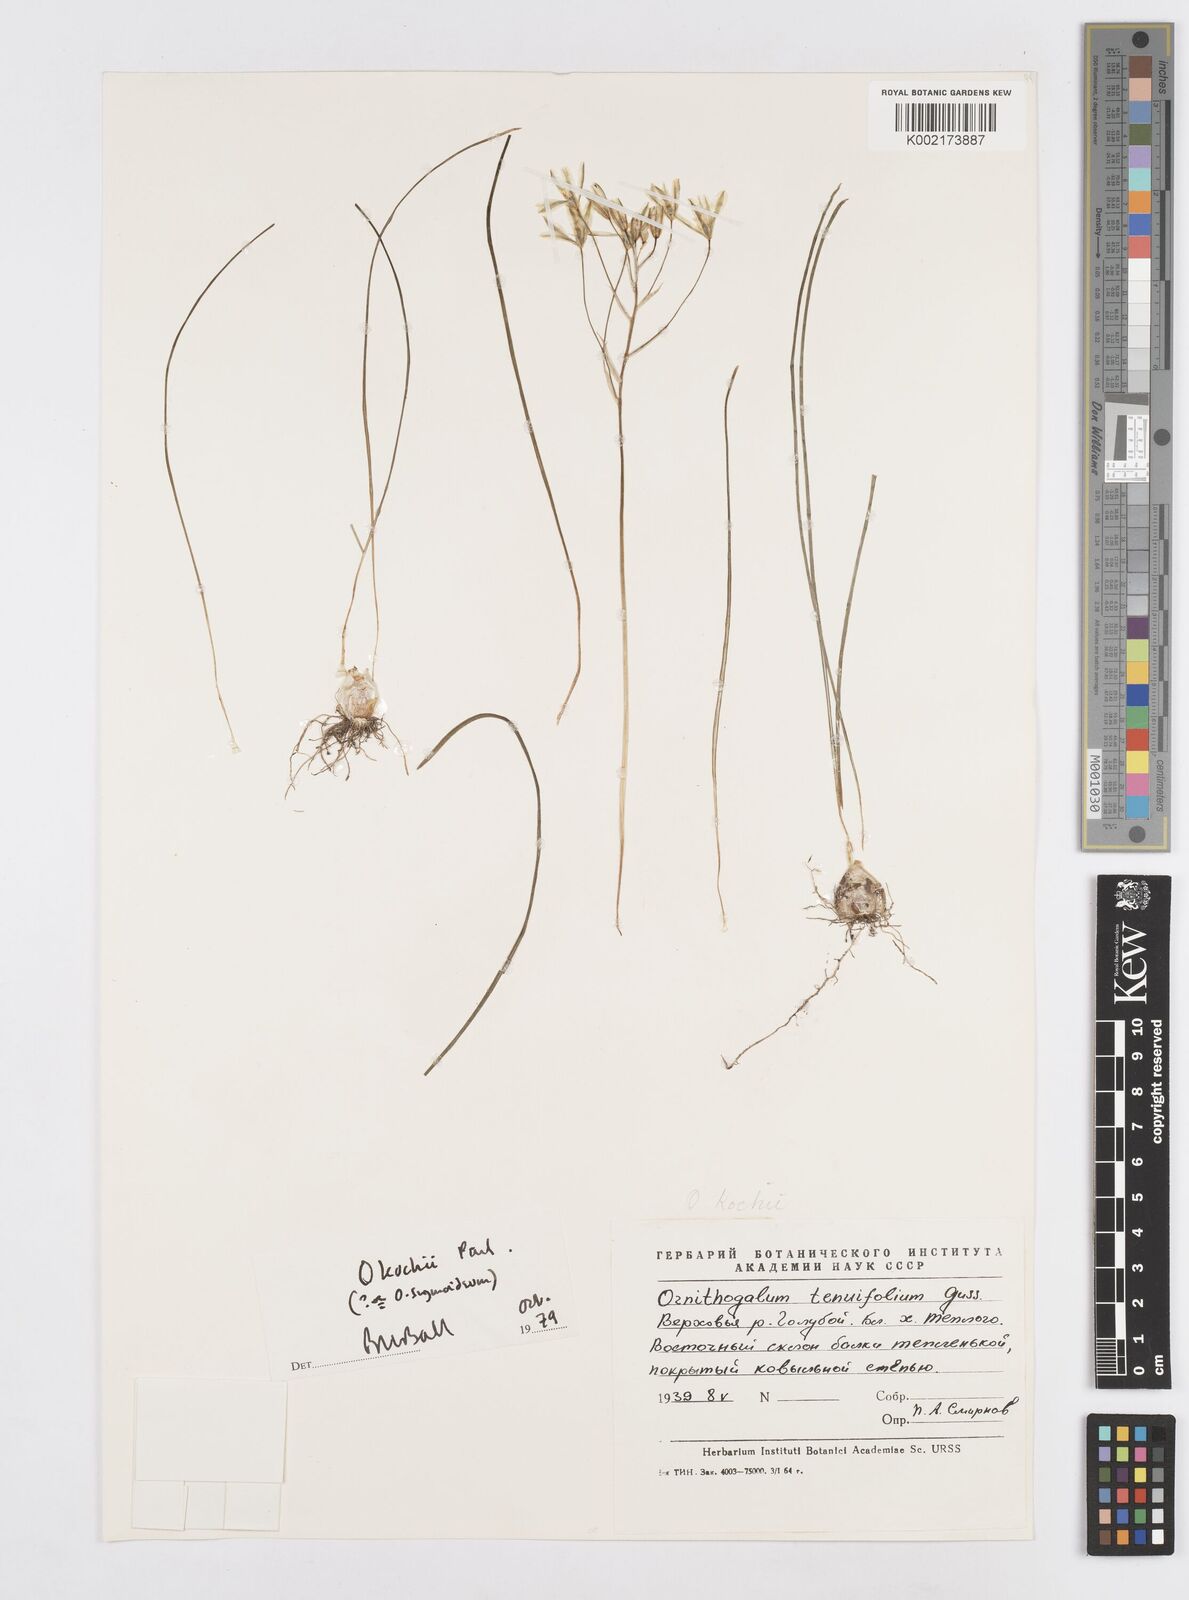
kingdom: Plantae
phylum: Tracheophyta
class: Liliopsida
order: Asparagales
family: Asparagaceae
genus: Ornithogalum
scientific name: Ornithogalum orthophyllum
